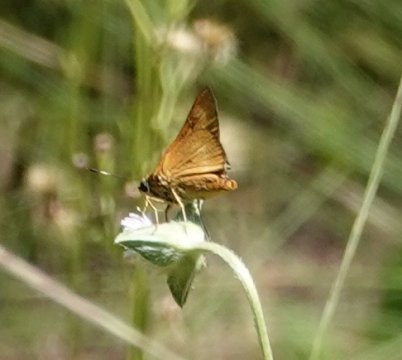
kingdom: Animalia
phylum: Arthropoda
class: Insecta
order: Lepidoptera
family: Hesperiidae
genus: Problema
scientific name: Problema byssus
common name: Byssus Skipper
